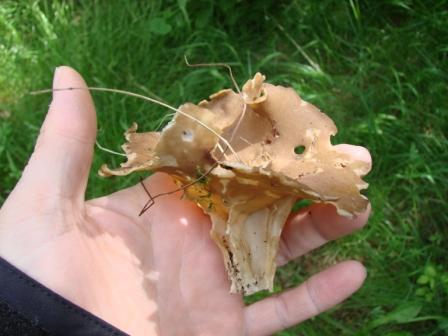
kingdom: Fungi
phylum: Ascomycota
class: Pezizomycetes
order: Pezizales
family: Helvellaceae
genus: Helvella
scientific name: Helvella acetabulum
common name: pokal-foldhat
